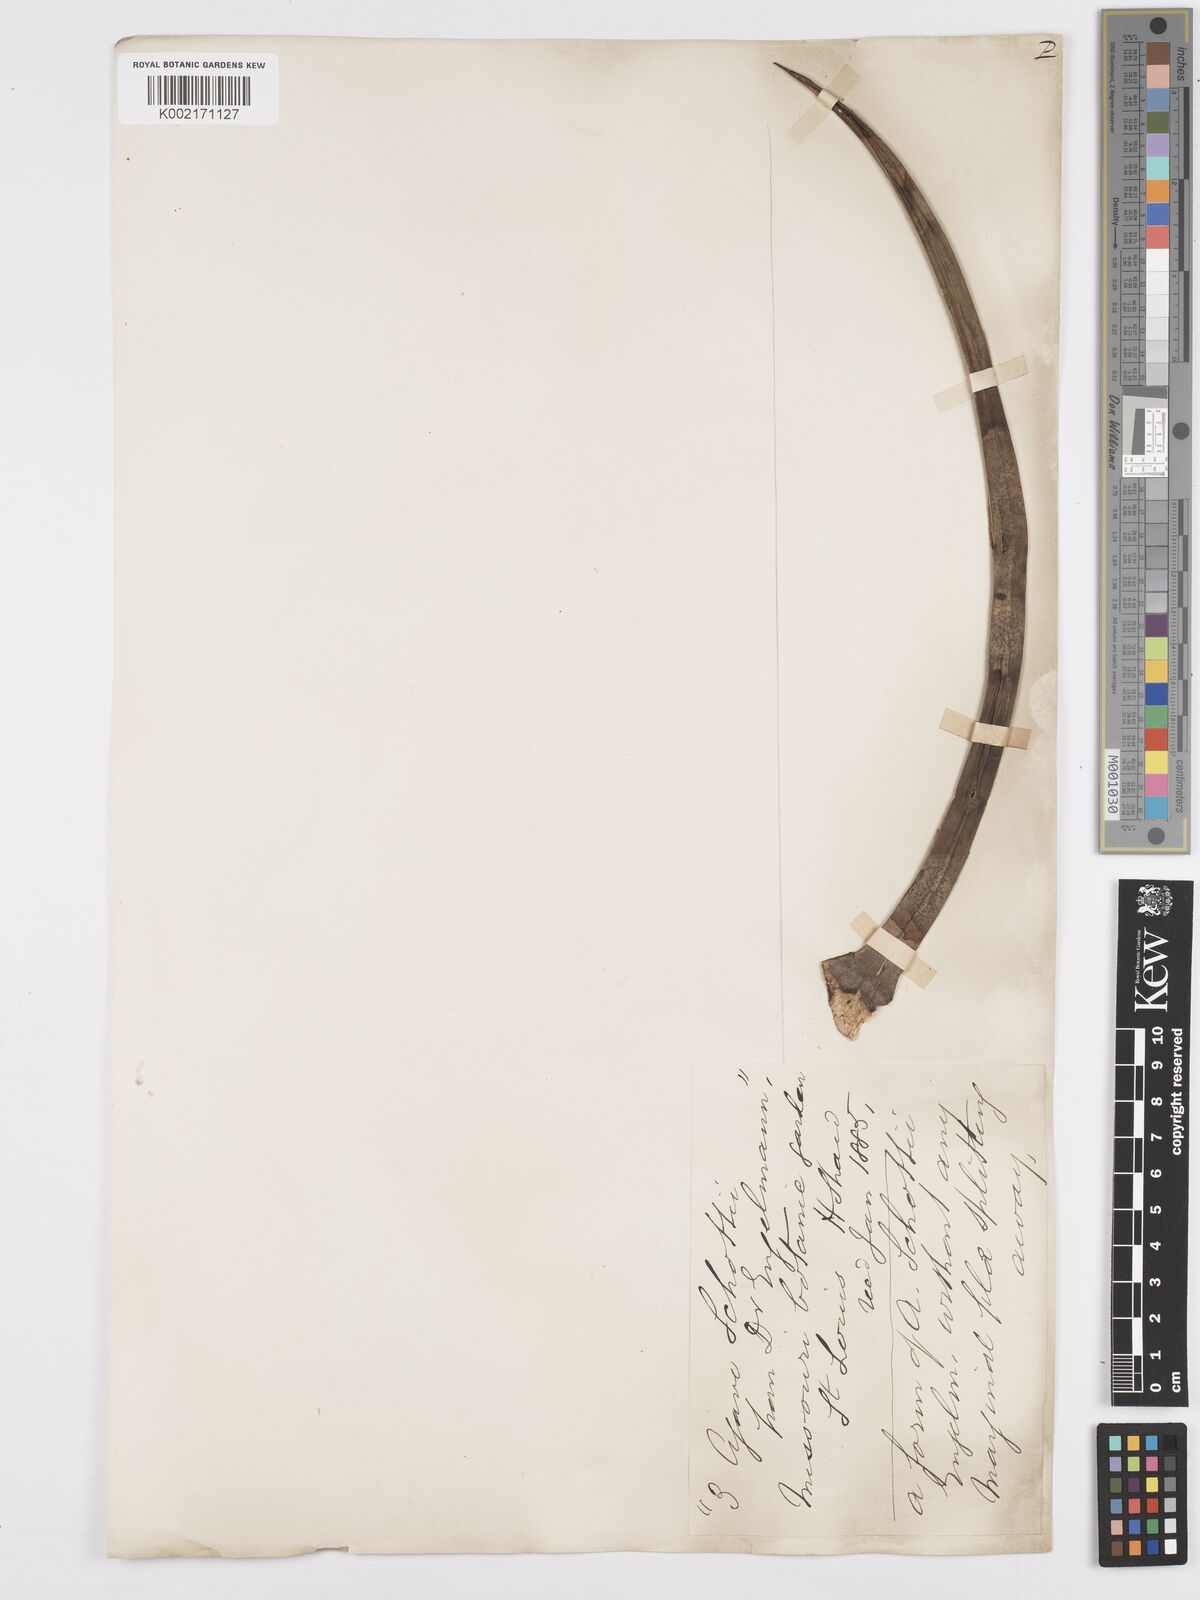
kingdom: Plantae
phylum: Tracheophyta
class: Liliopsida
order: Asparagales
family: Asparagaceae
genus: Agave
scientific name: Agave schottii
